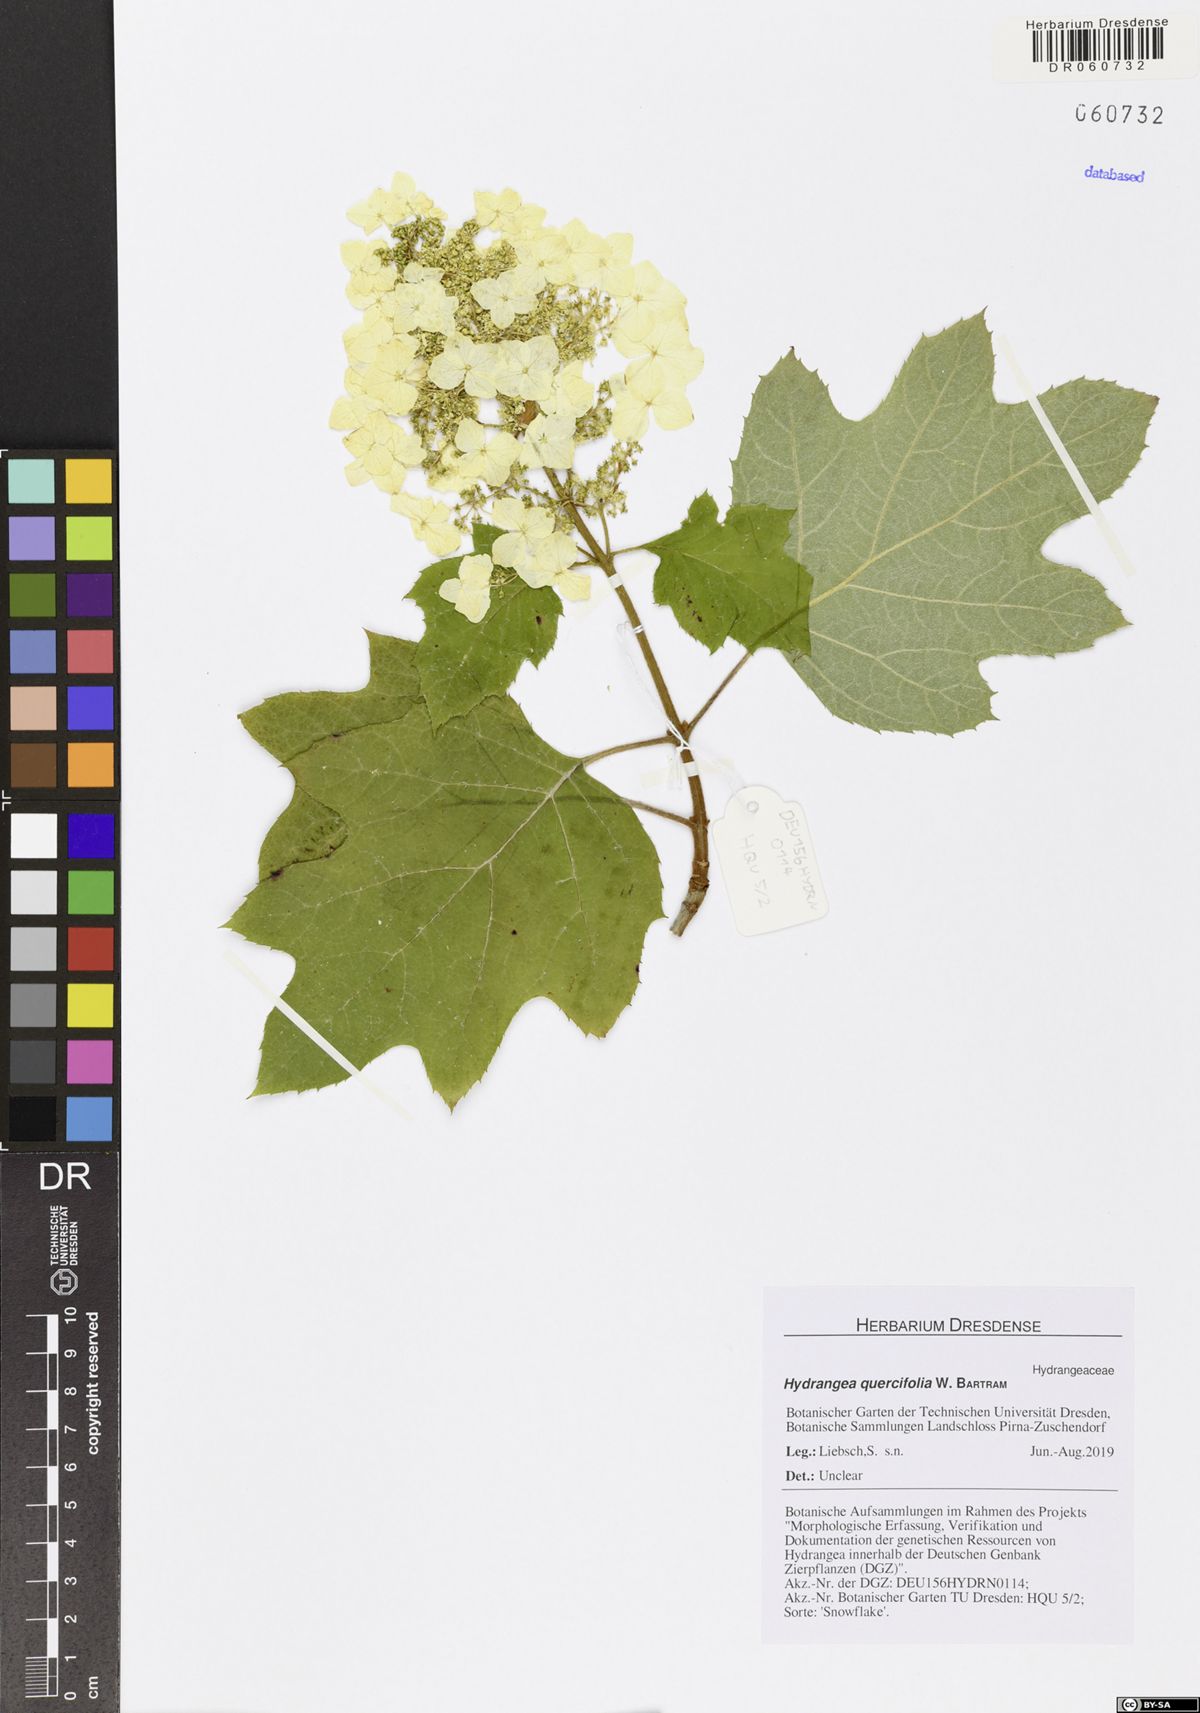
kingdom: Plantae
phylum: Tracheophyta
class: Magnoliopsida
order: Cornales
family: Hydrangeaceae
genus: Hydrangea
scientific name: Hydrangea quercifolia
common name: Oak-leaf hydrangea
